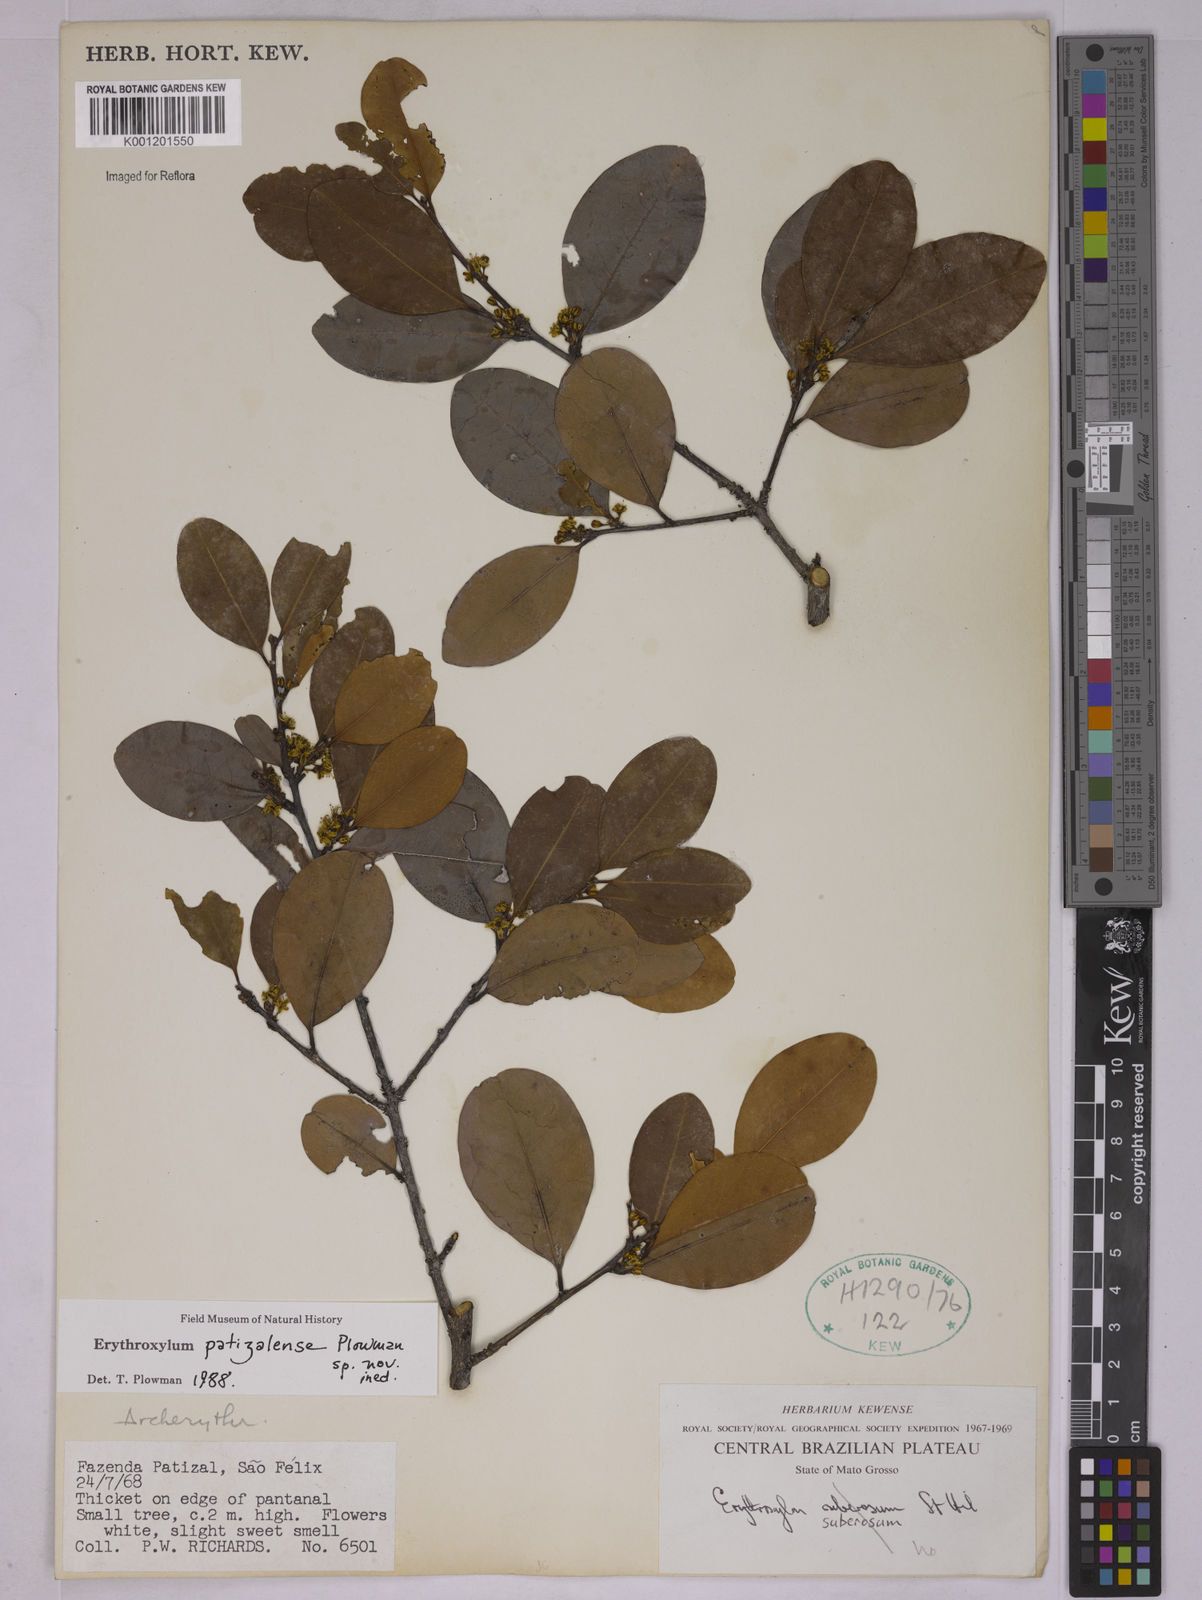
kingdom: Plantae
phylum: Tracheophyta
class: Magnoliopsida
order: Malpighiales
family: Erythroxylaceae
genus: Erythroxylum
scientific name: Erythroxylum
